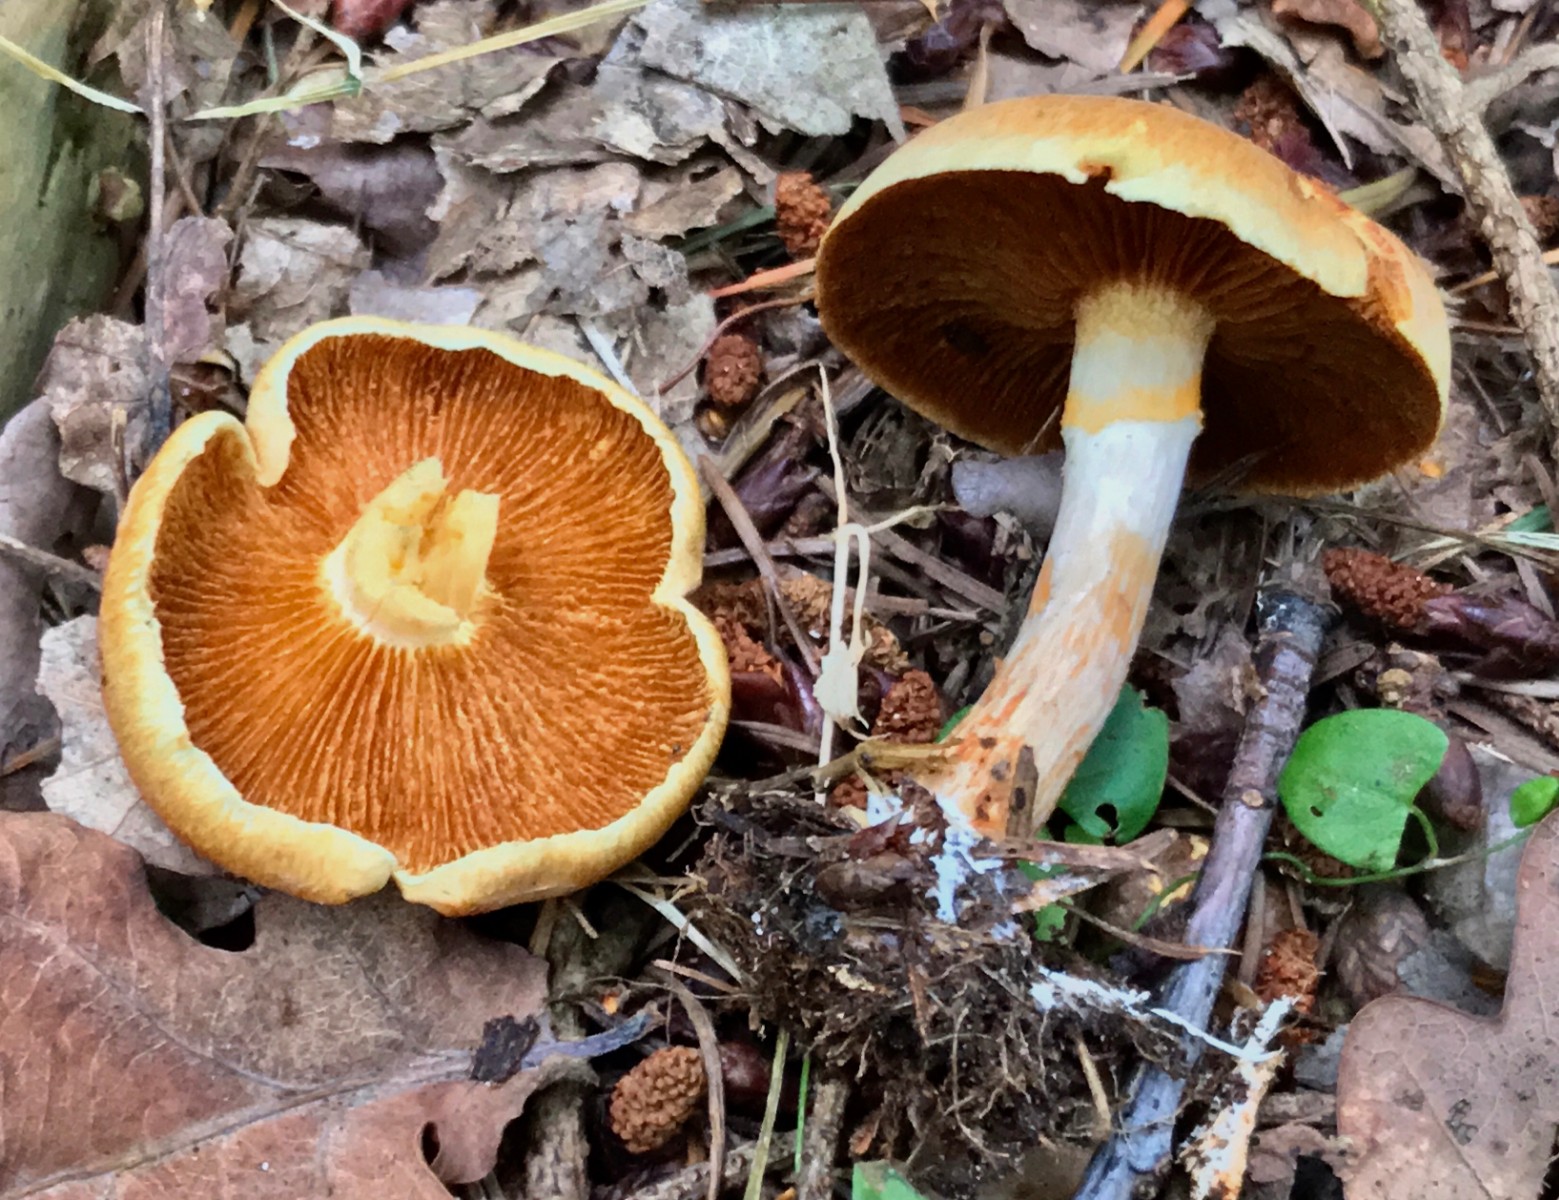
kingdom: Fungi
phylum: Basidiomycota
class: Agaricomycetes
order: Agaricales
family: Hymenogastraceae
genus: Gymnopilus
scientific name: Gymnopilus penetrans
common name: plettet flammehat
